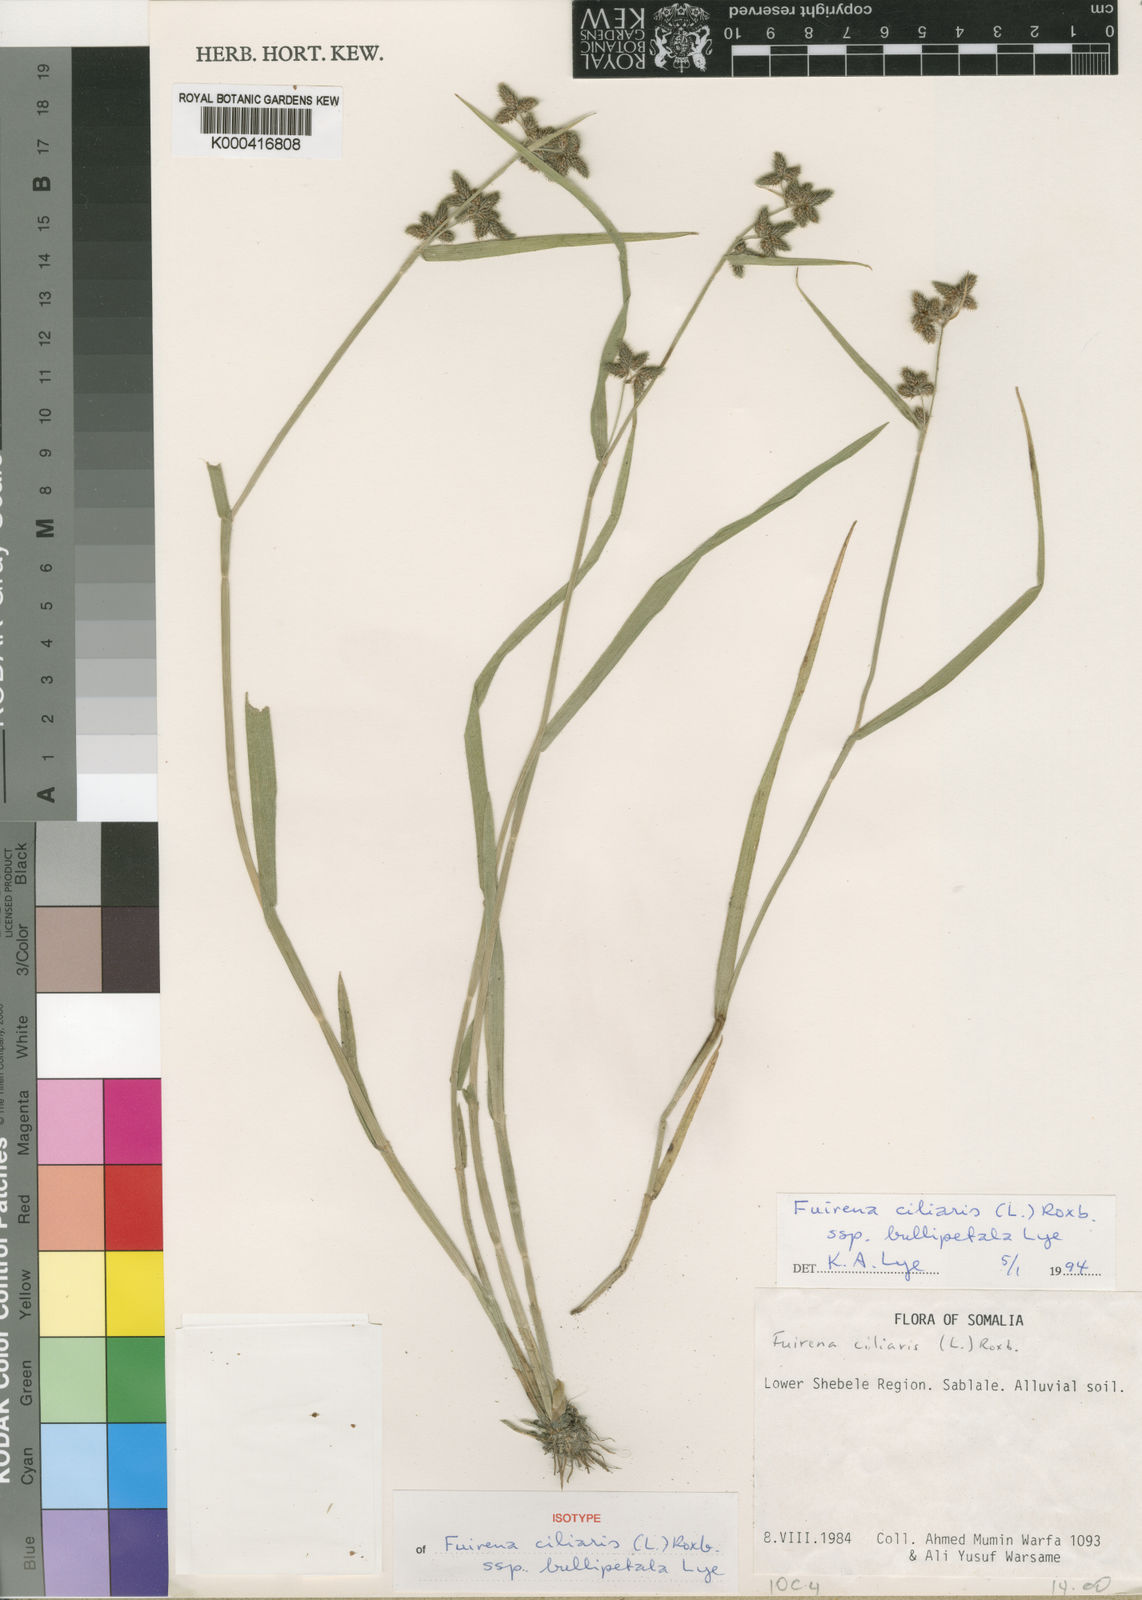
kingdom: Plantae
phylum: Tracheophyta
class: Liliopsida
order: Poales
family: Cyperaceae
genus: Fuirena
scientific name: Fuirena ciliaris
